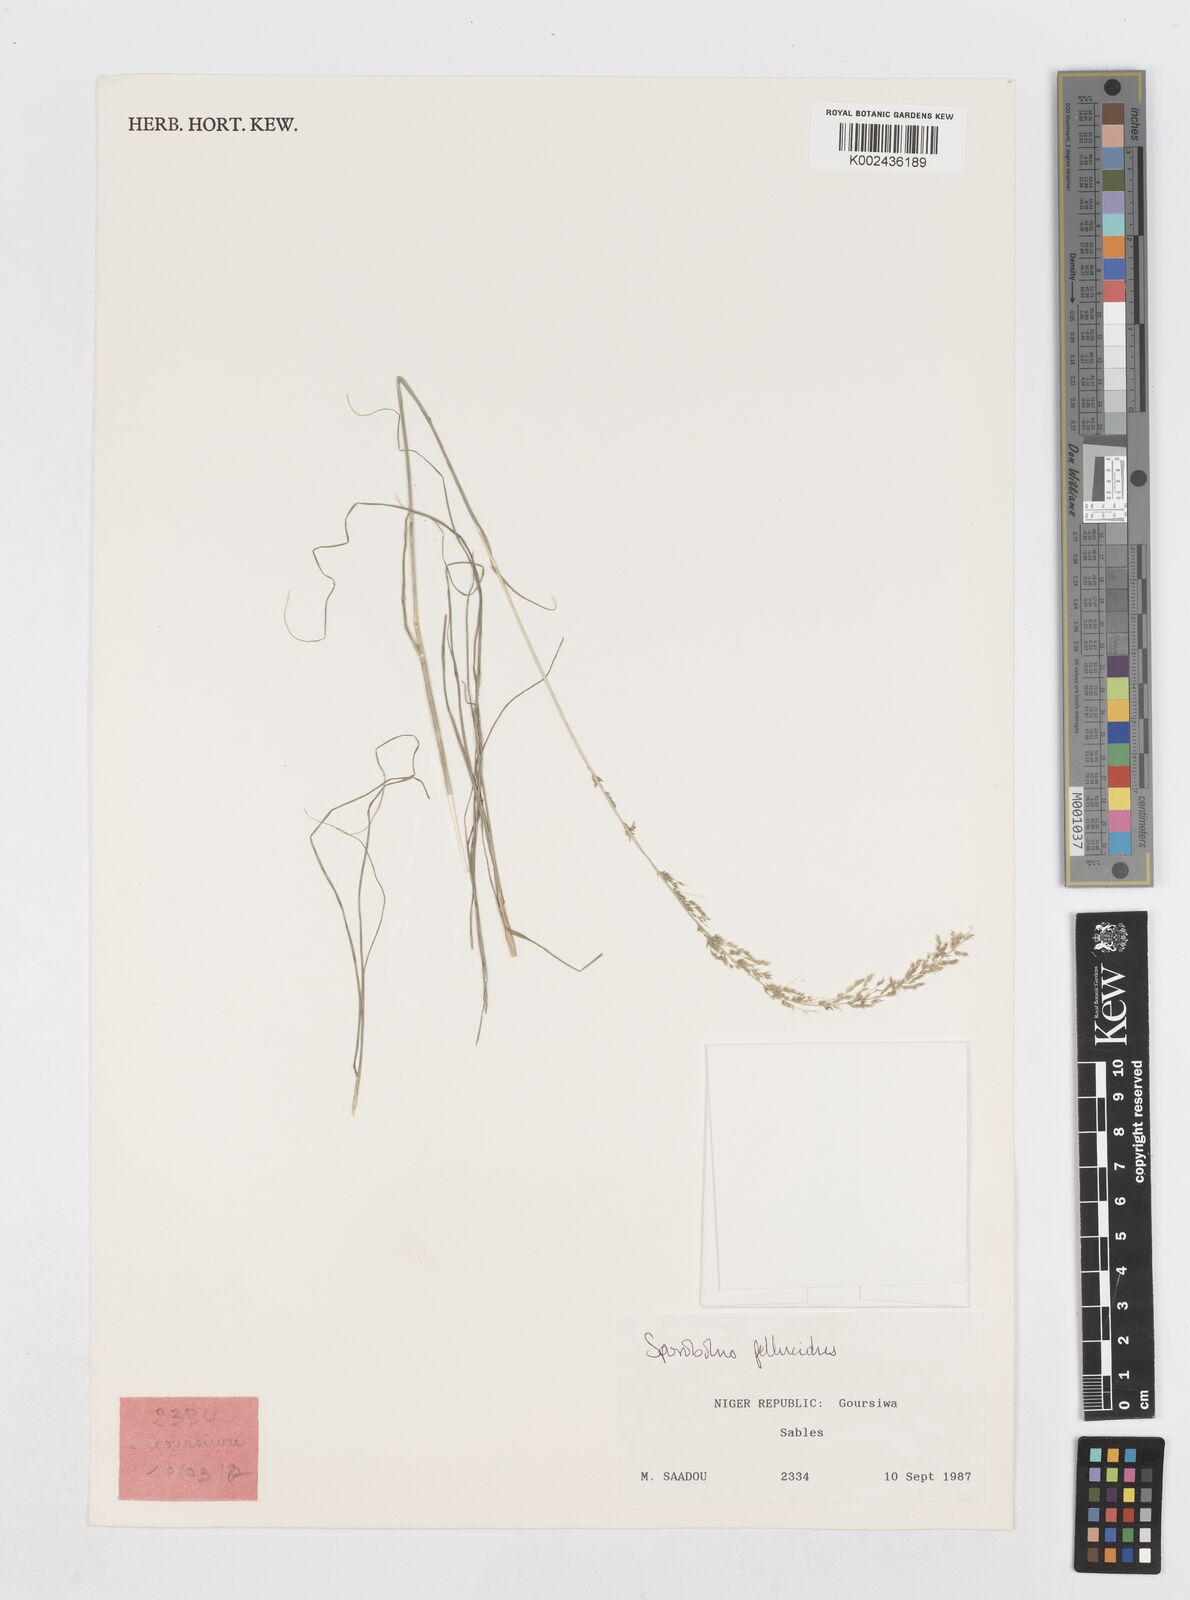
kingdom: Plantae
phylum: Tracheophyta
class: Liliopsida
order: Poales
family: Poaceae
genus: Sporobolus
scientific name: Sporobolus pellucidus
